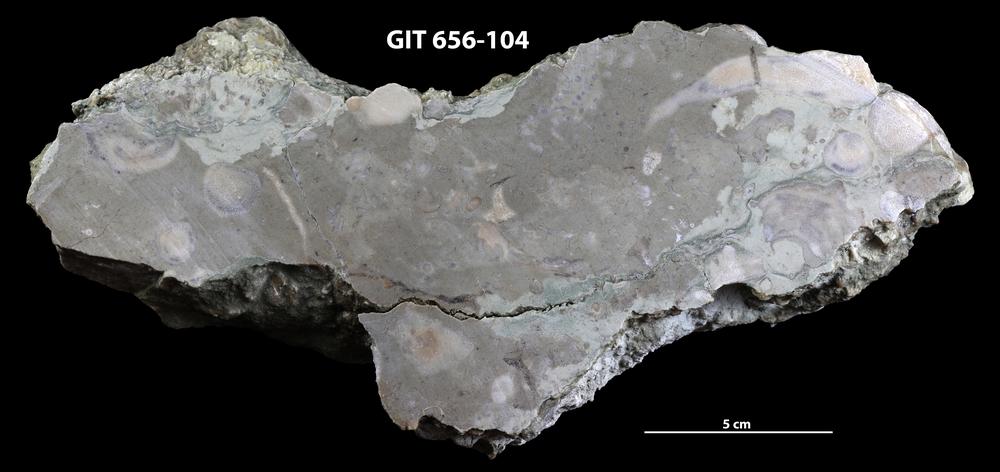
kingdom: Animalia
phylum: Porifera
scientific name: Porifera
